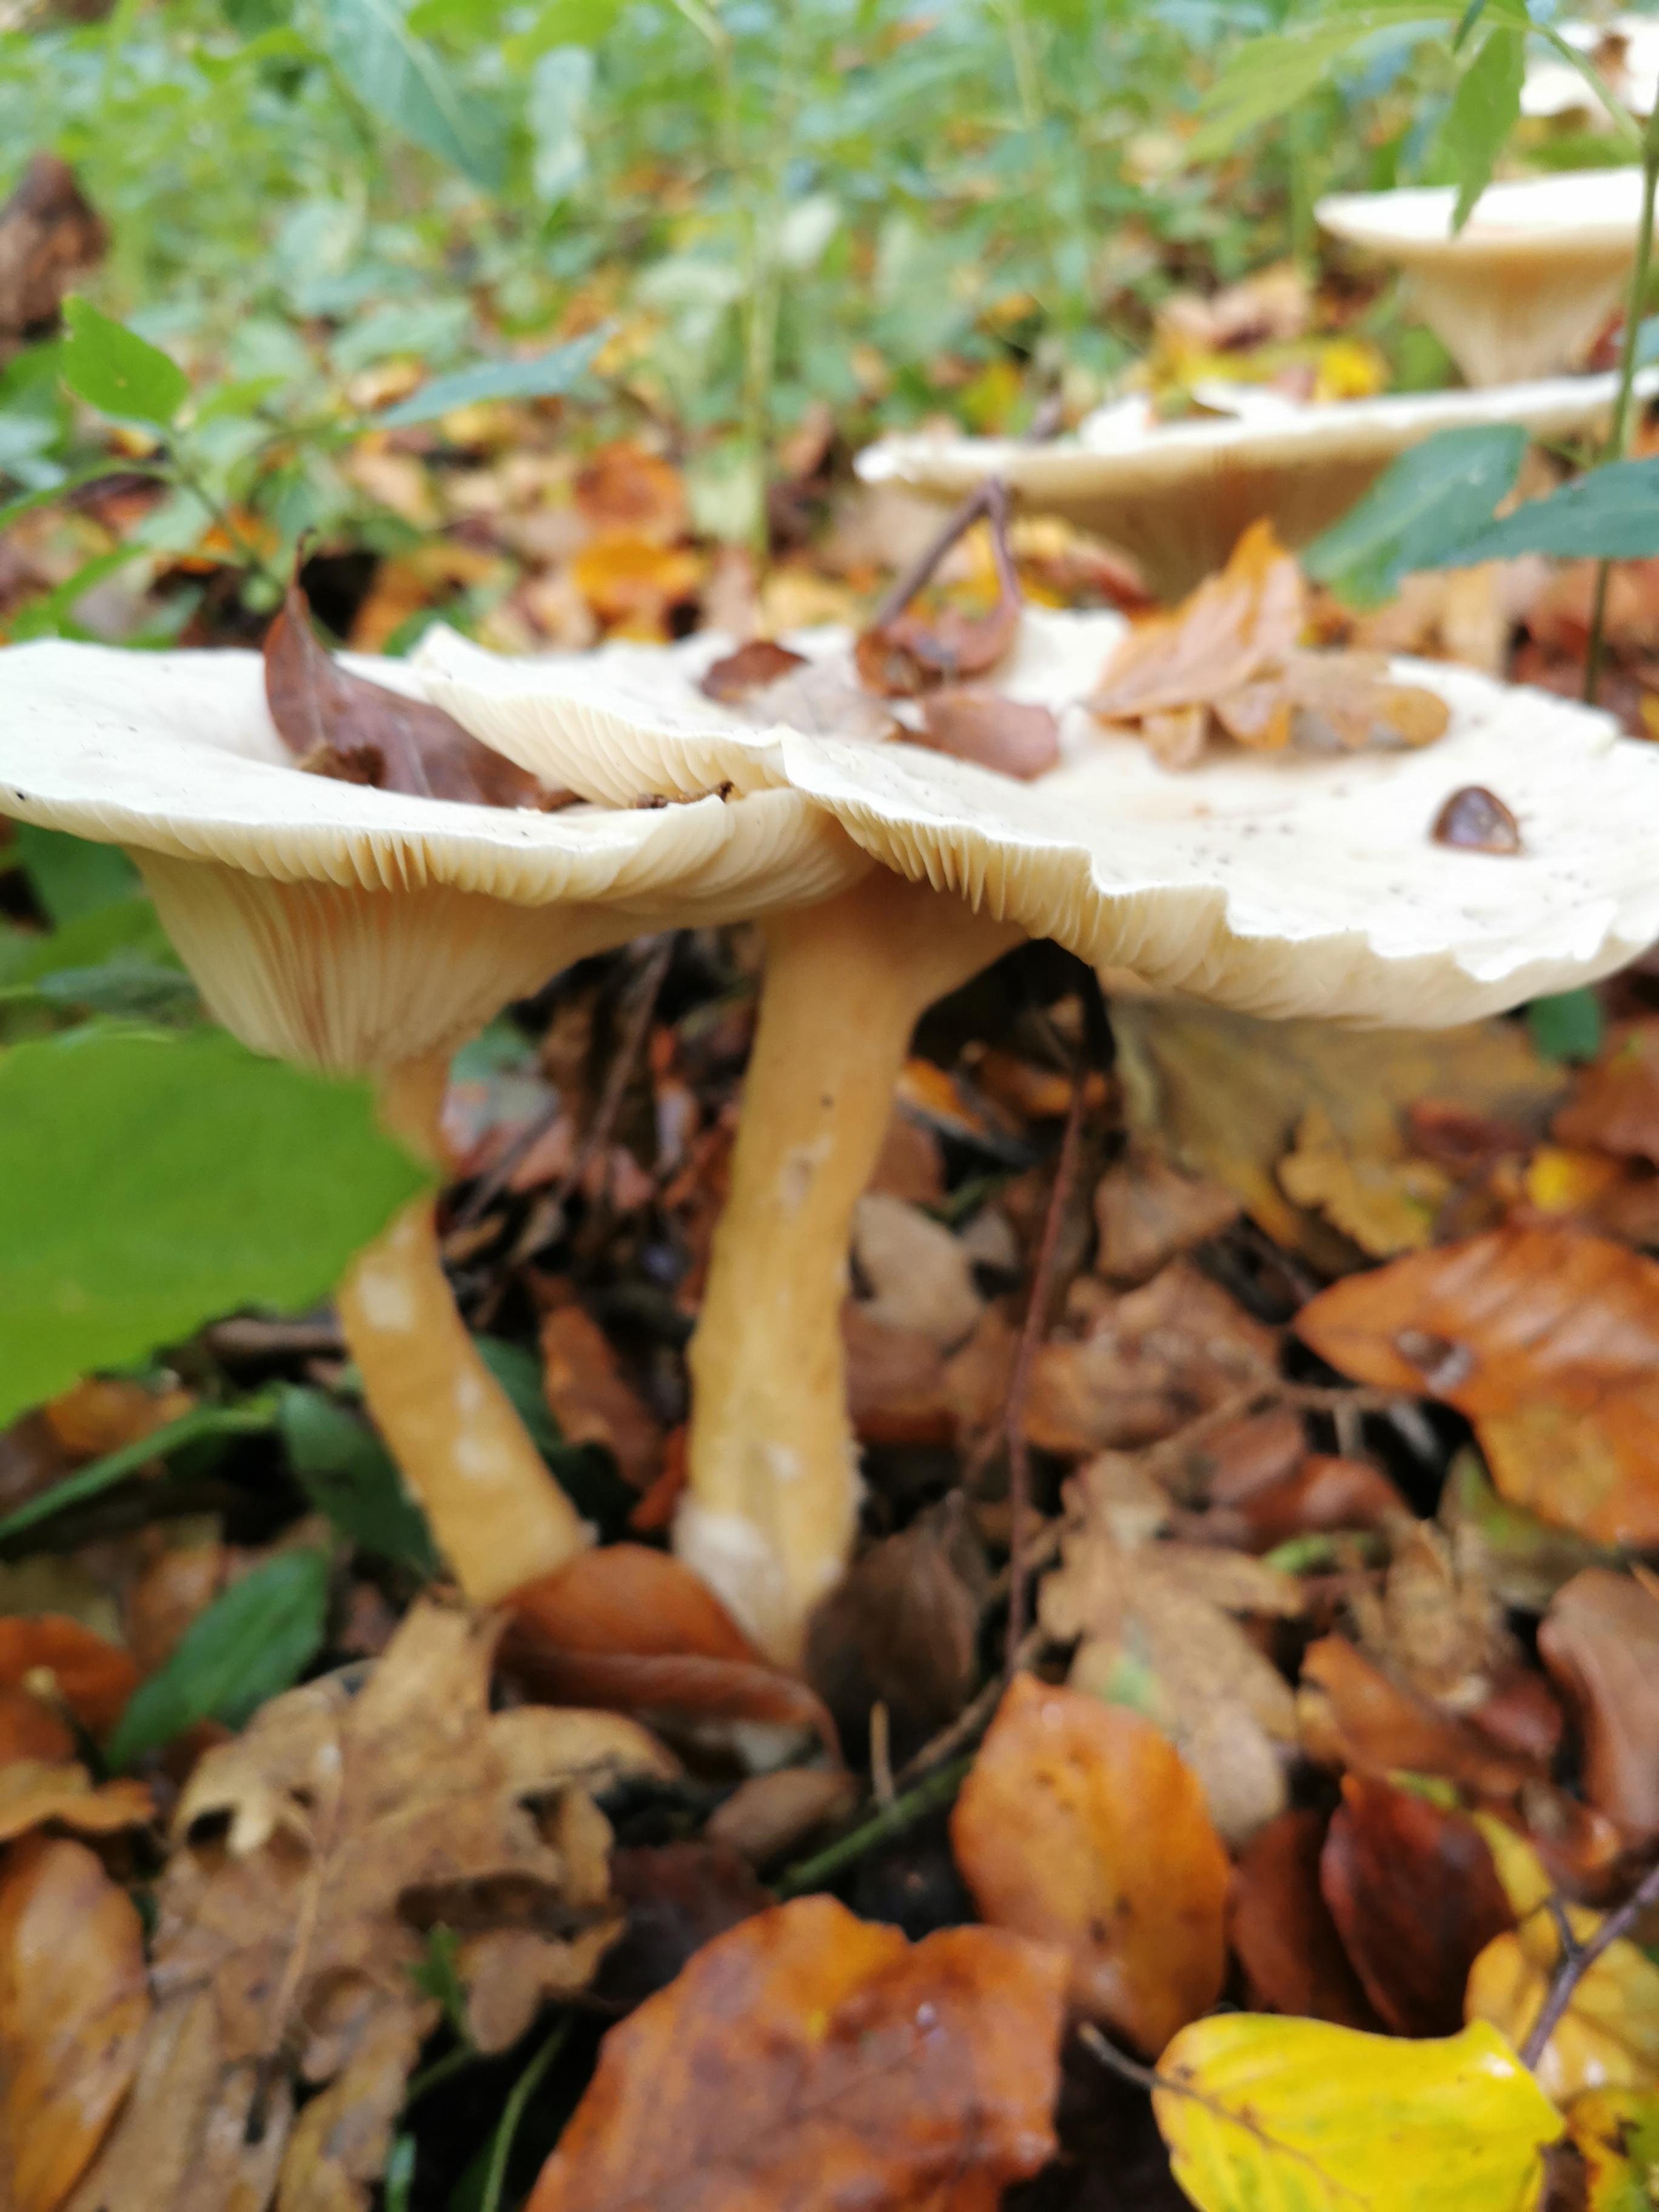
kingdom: Fungi
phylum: Basidiomycota
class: Agaricomycetes
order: Agaricales
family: Tricholomataceae
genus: Infundibulicybe
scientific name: Infundibulicybe geotropa
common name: stor tragthat
